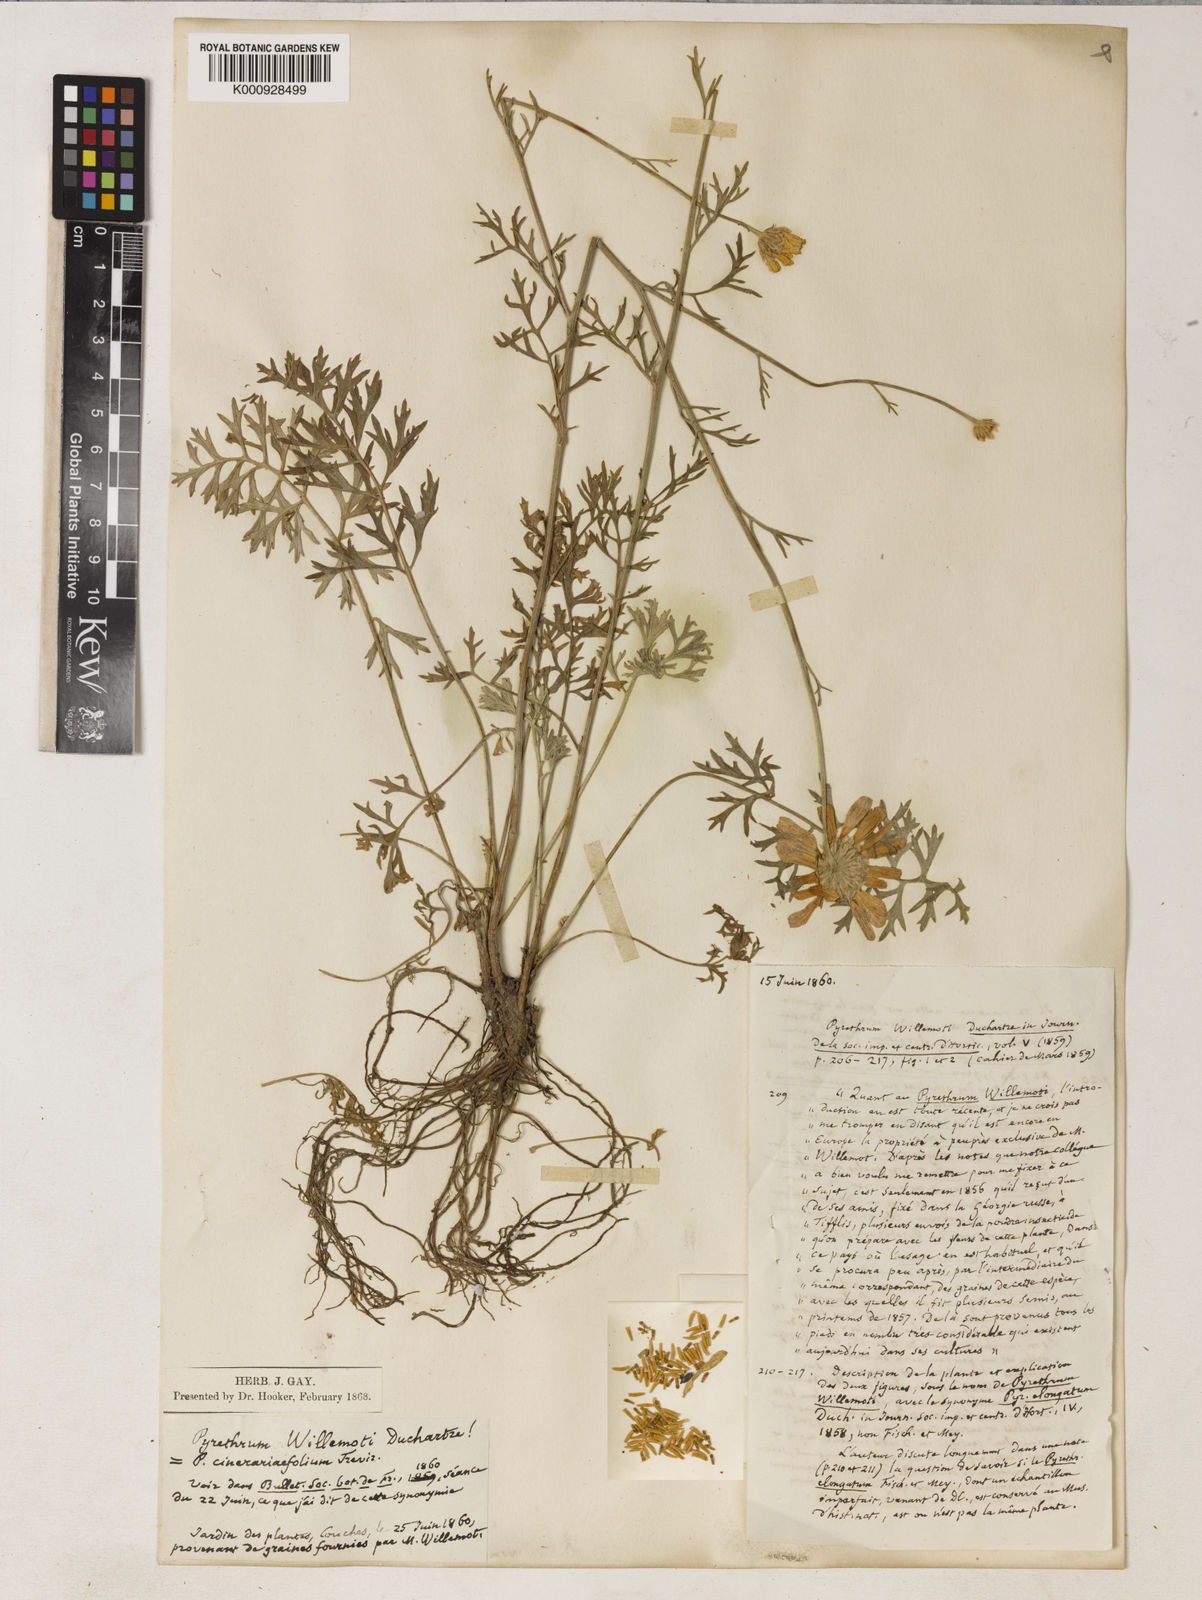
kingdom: Plantae
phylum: Tracheophyta
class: Magnoliopsida
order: Asterales
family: Asteraceae
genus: Tanacetum
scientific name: Tanacetum cinerariifolium
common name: Dalmatian pyrethrum
